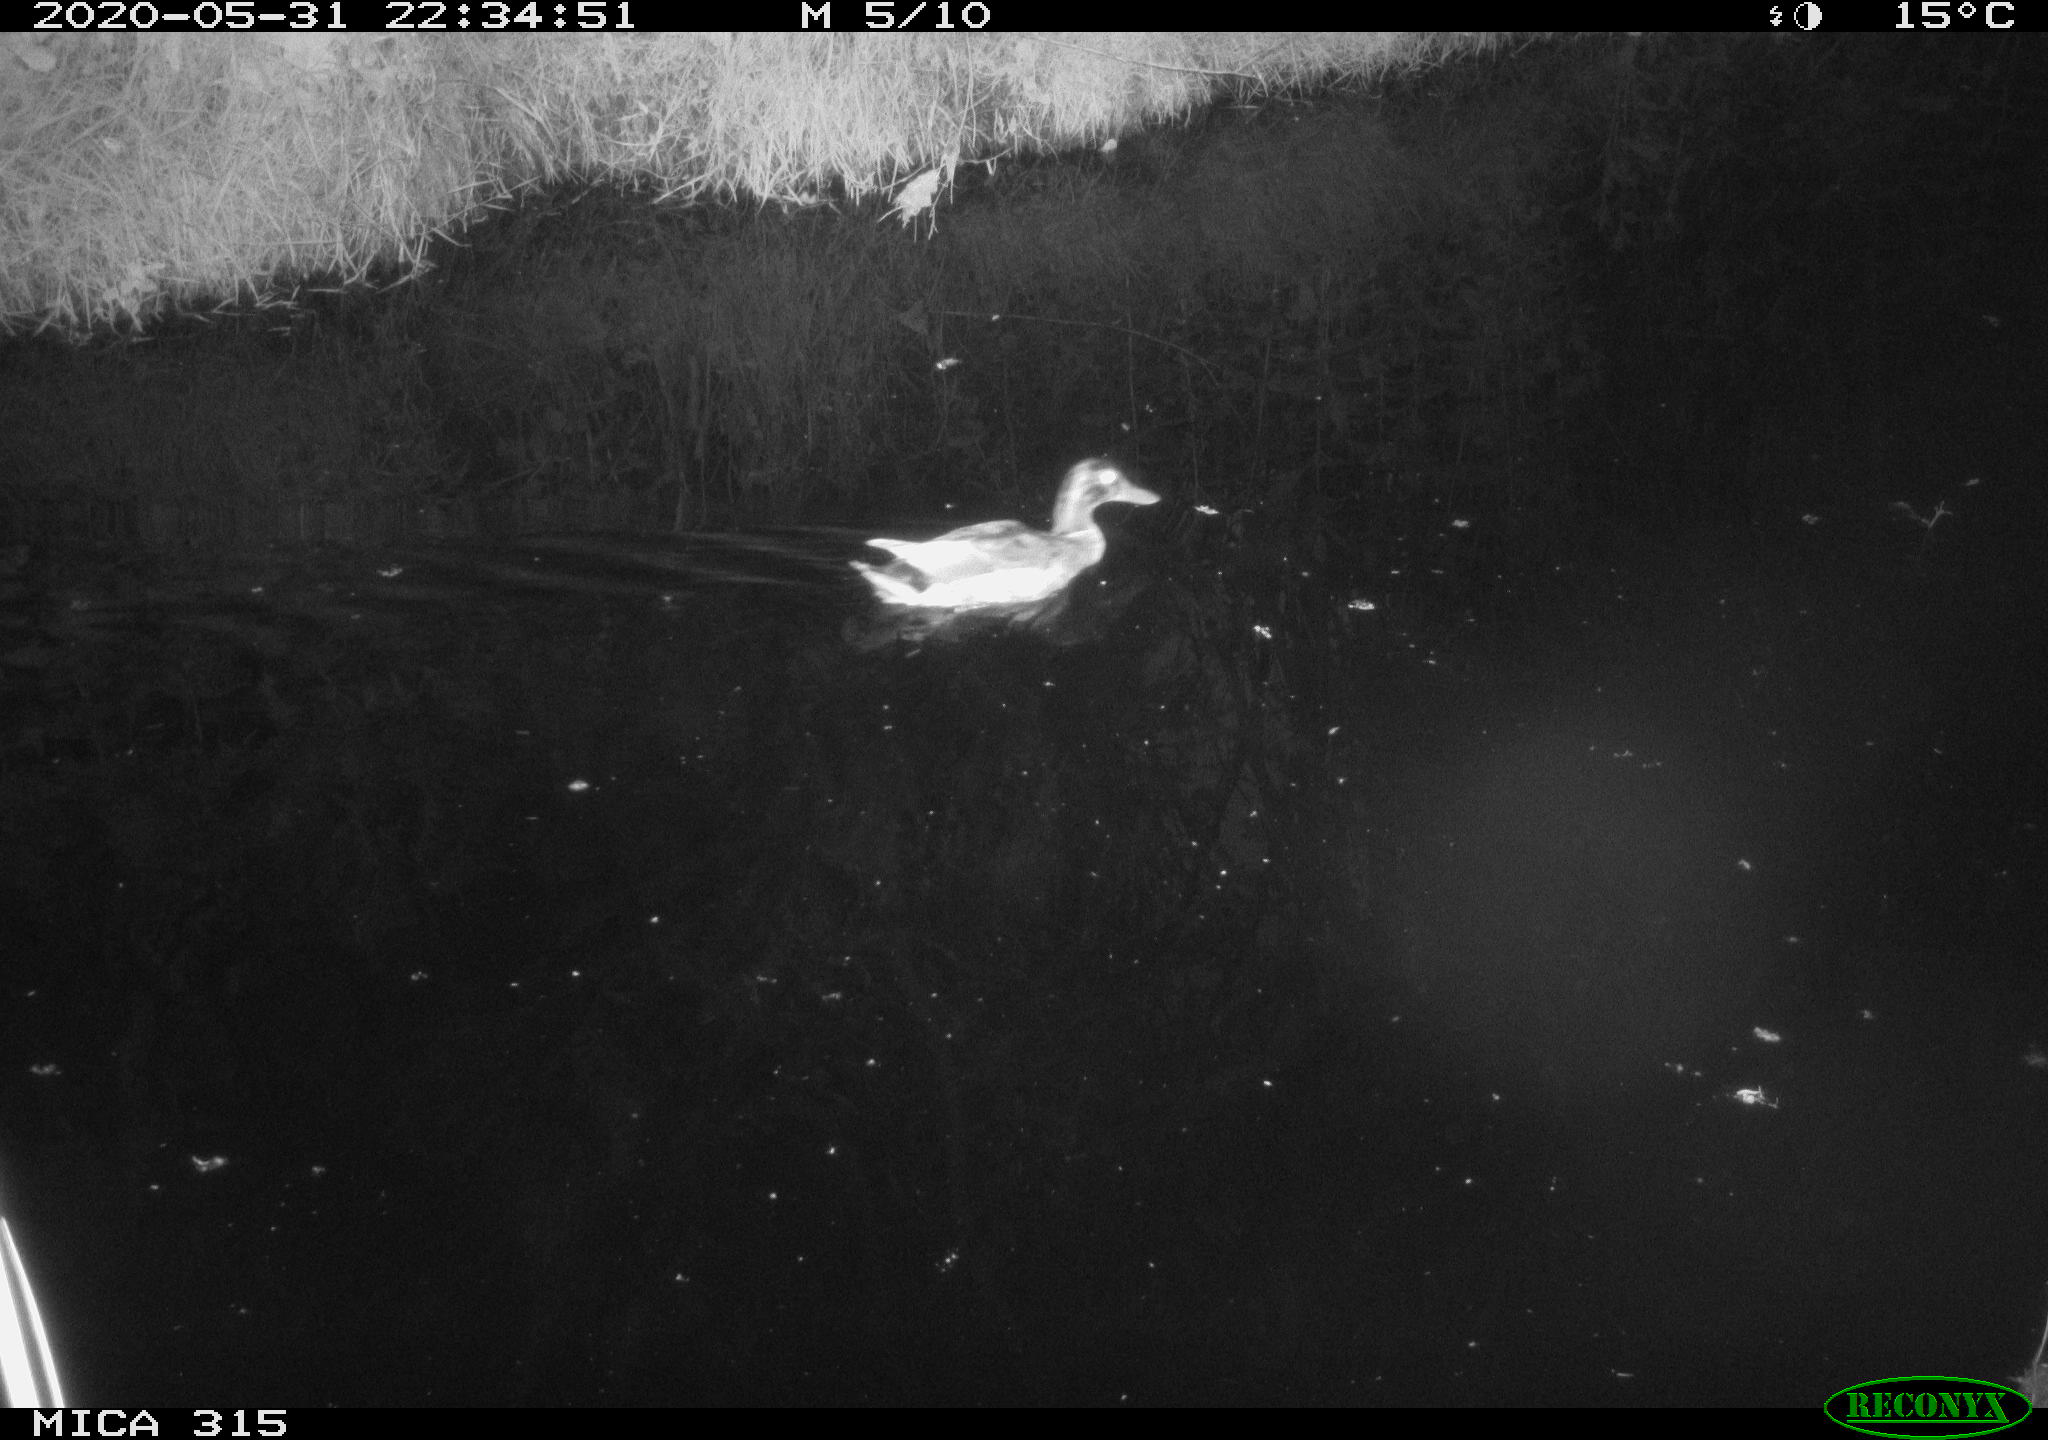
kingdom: Animalia
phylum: Chordata
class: Aves
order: Anseriformes
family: Anatidae
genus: Anas
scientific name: Anas platyrhynchos
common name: Mallard
